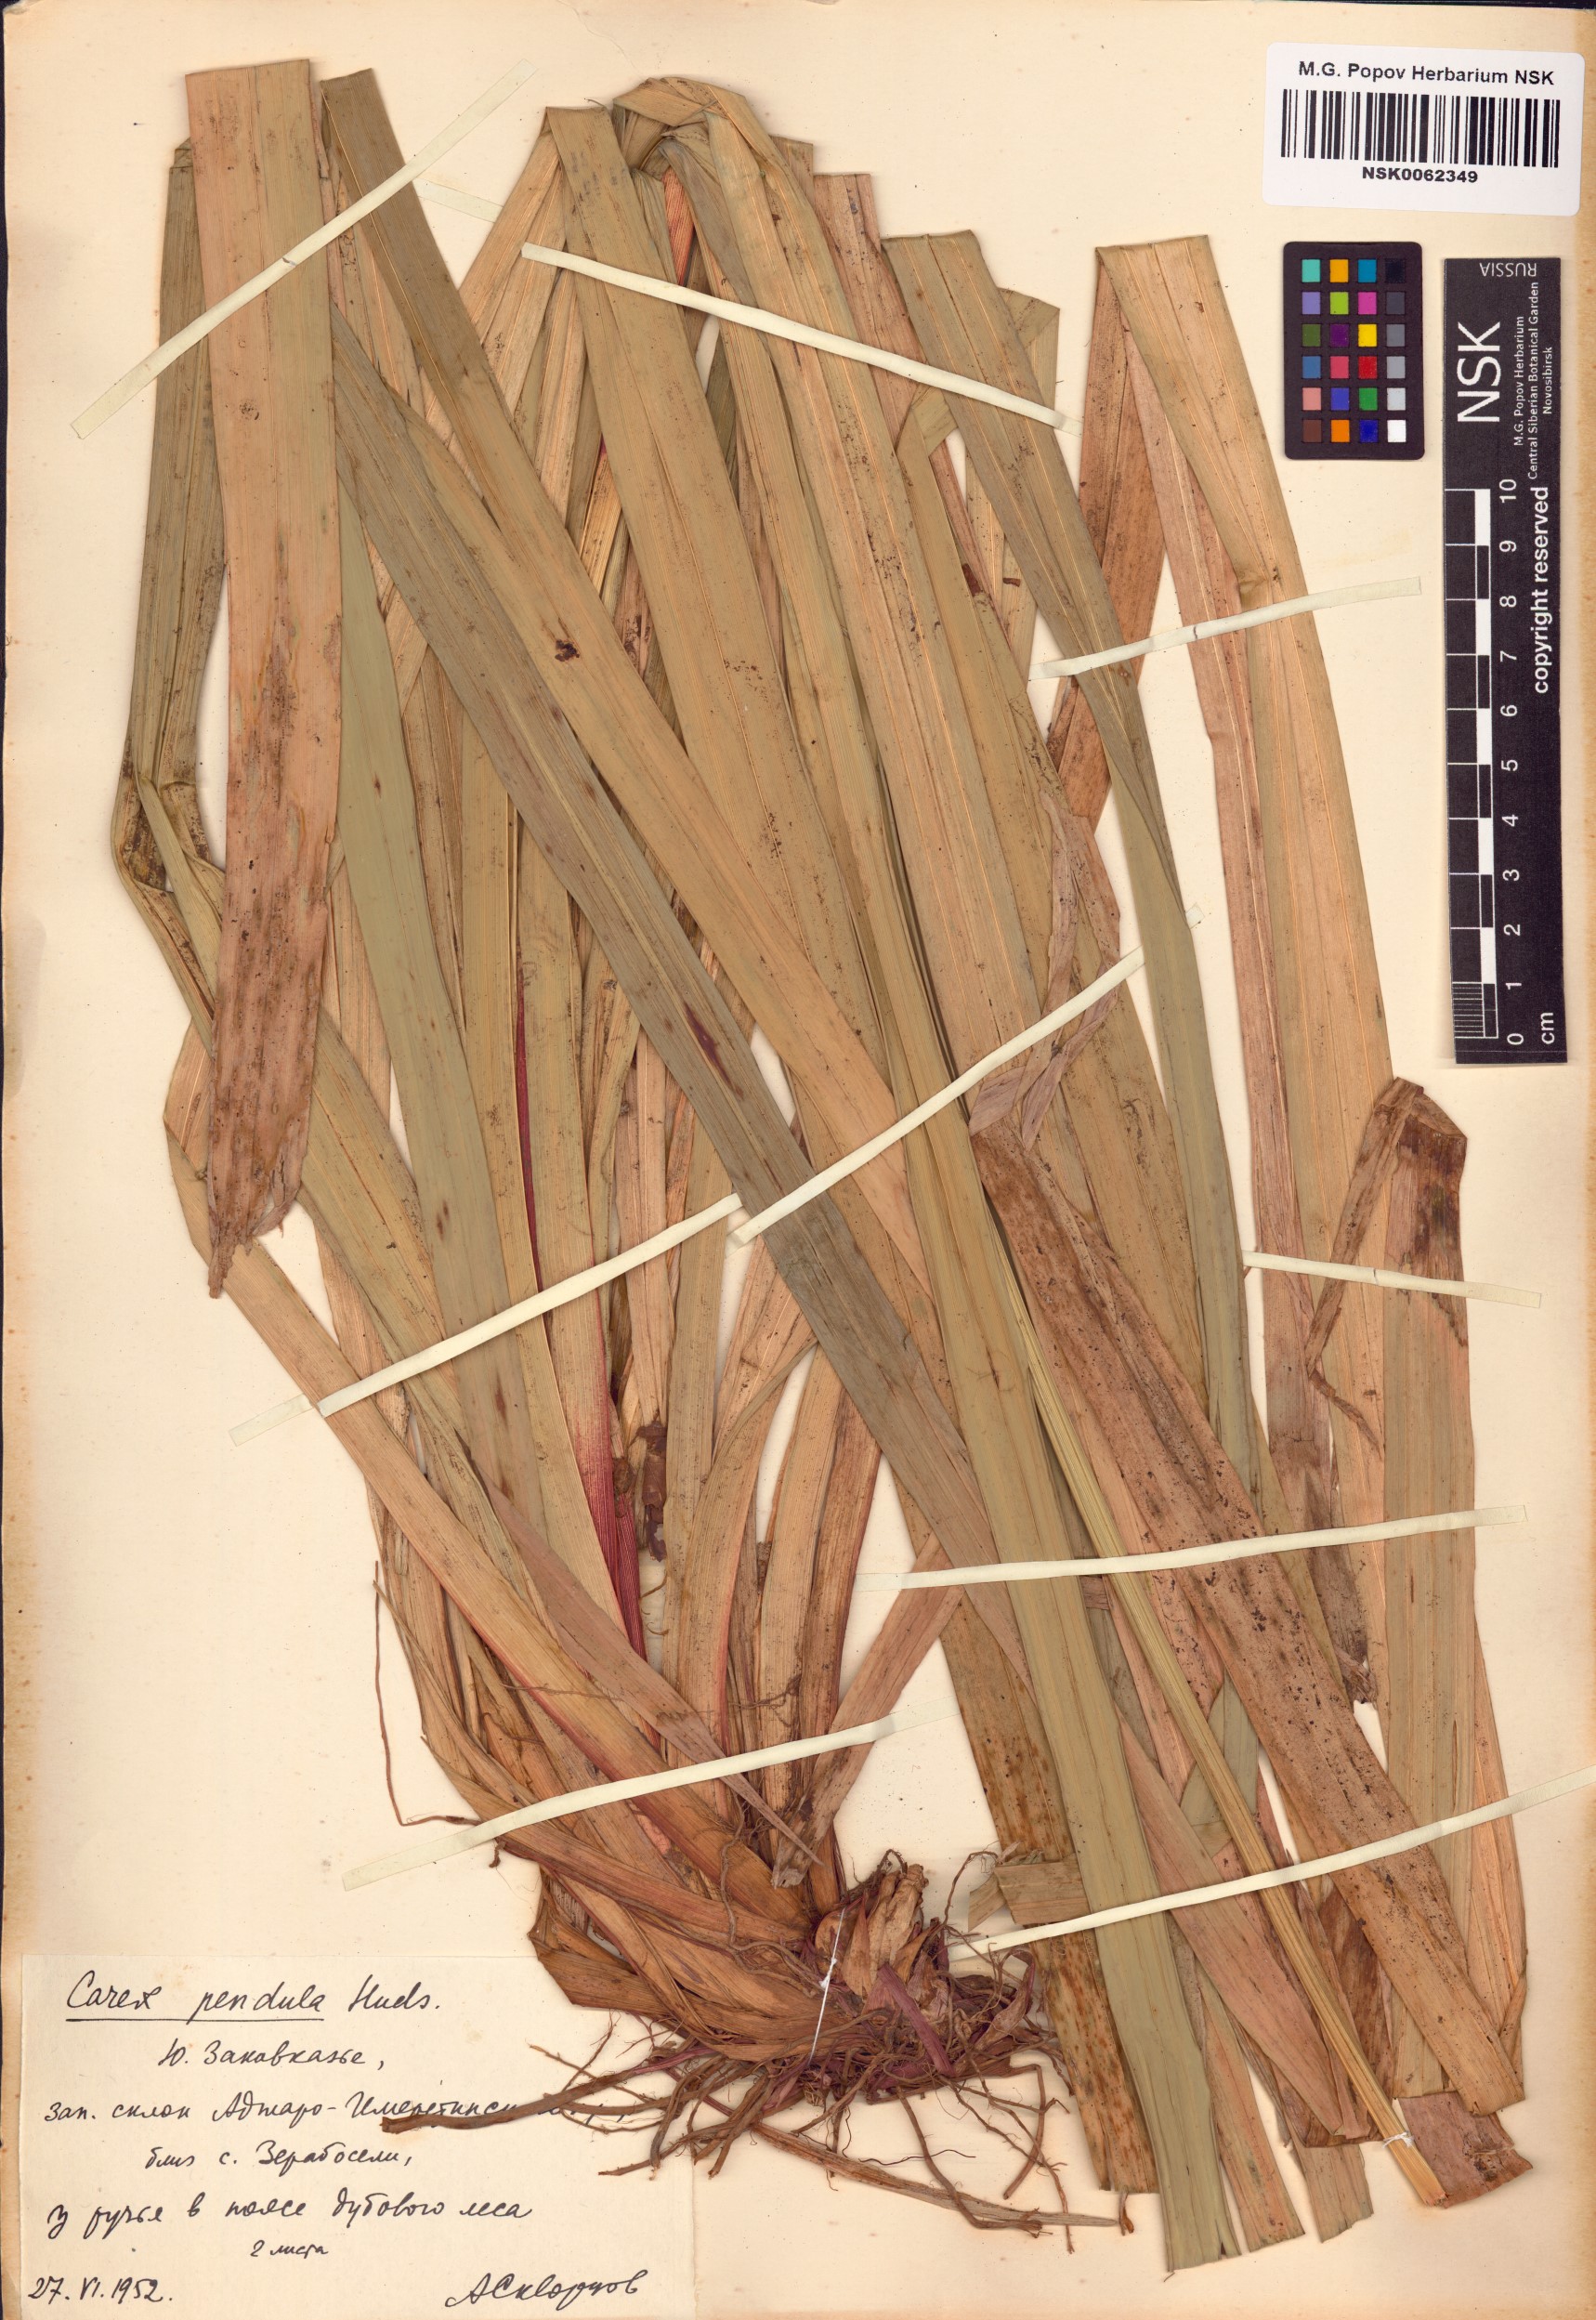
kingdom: Plantae
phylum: Tracheophyta
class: Liliopsida
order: Poales
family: Cyperaceae
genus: Carex
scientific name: Carex pendula
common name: Pendulous sedge
